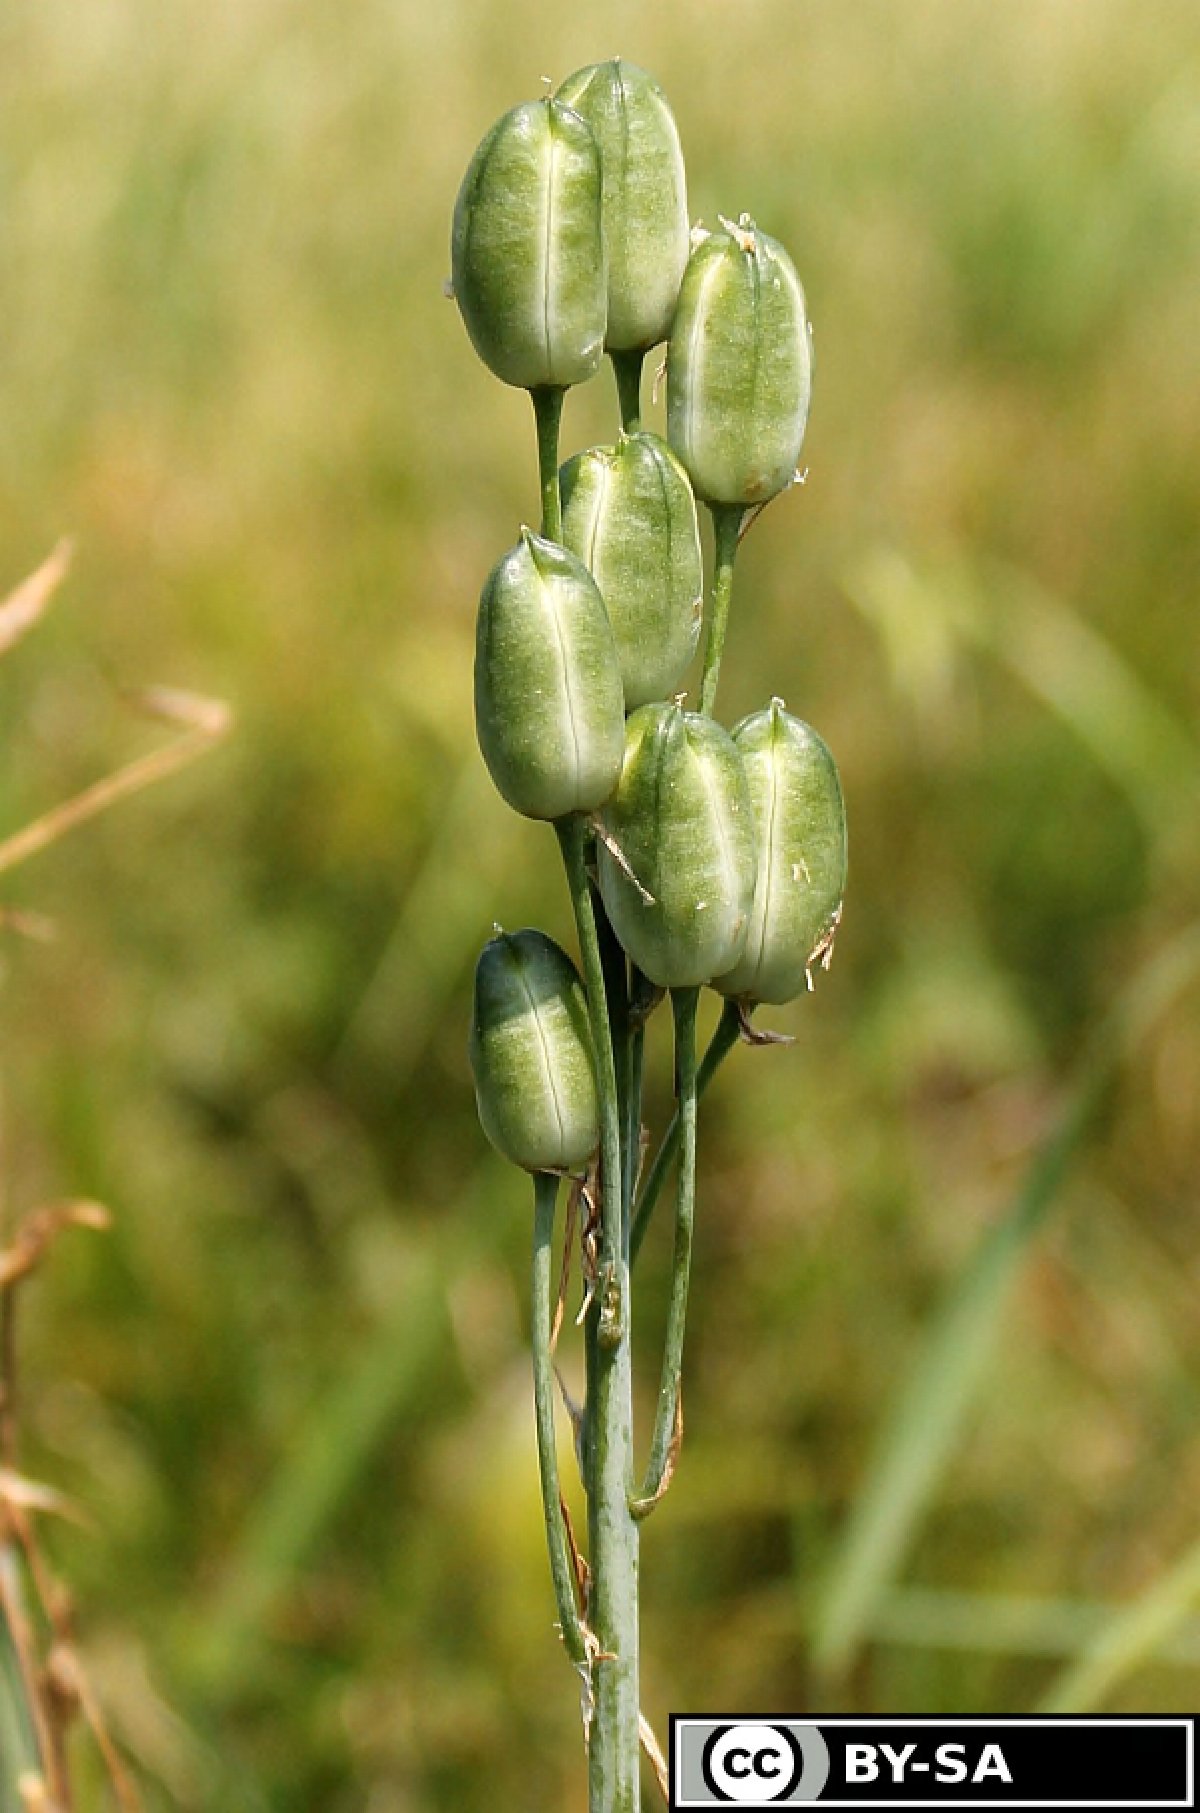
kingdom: Plantae
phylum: Tracheophyta
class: Liliopsida
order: Asparagales
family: Asparagaceae
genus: Ornithogalum
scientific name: Ornithogalum pyramidale
